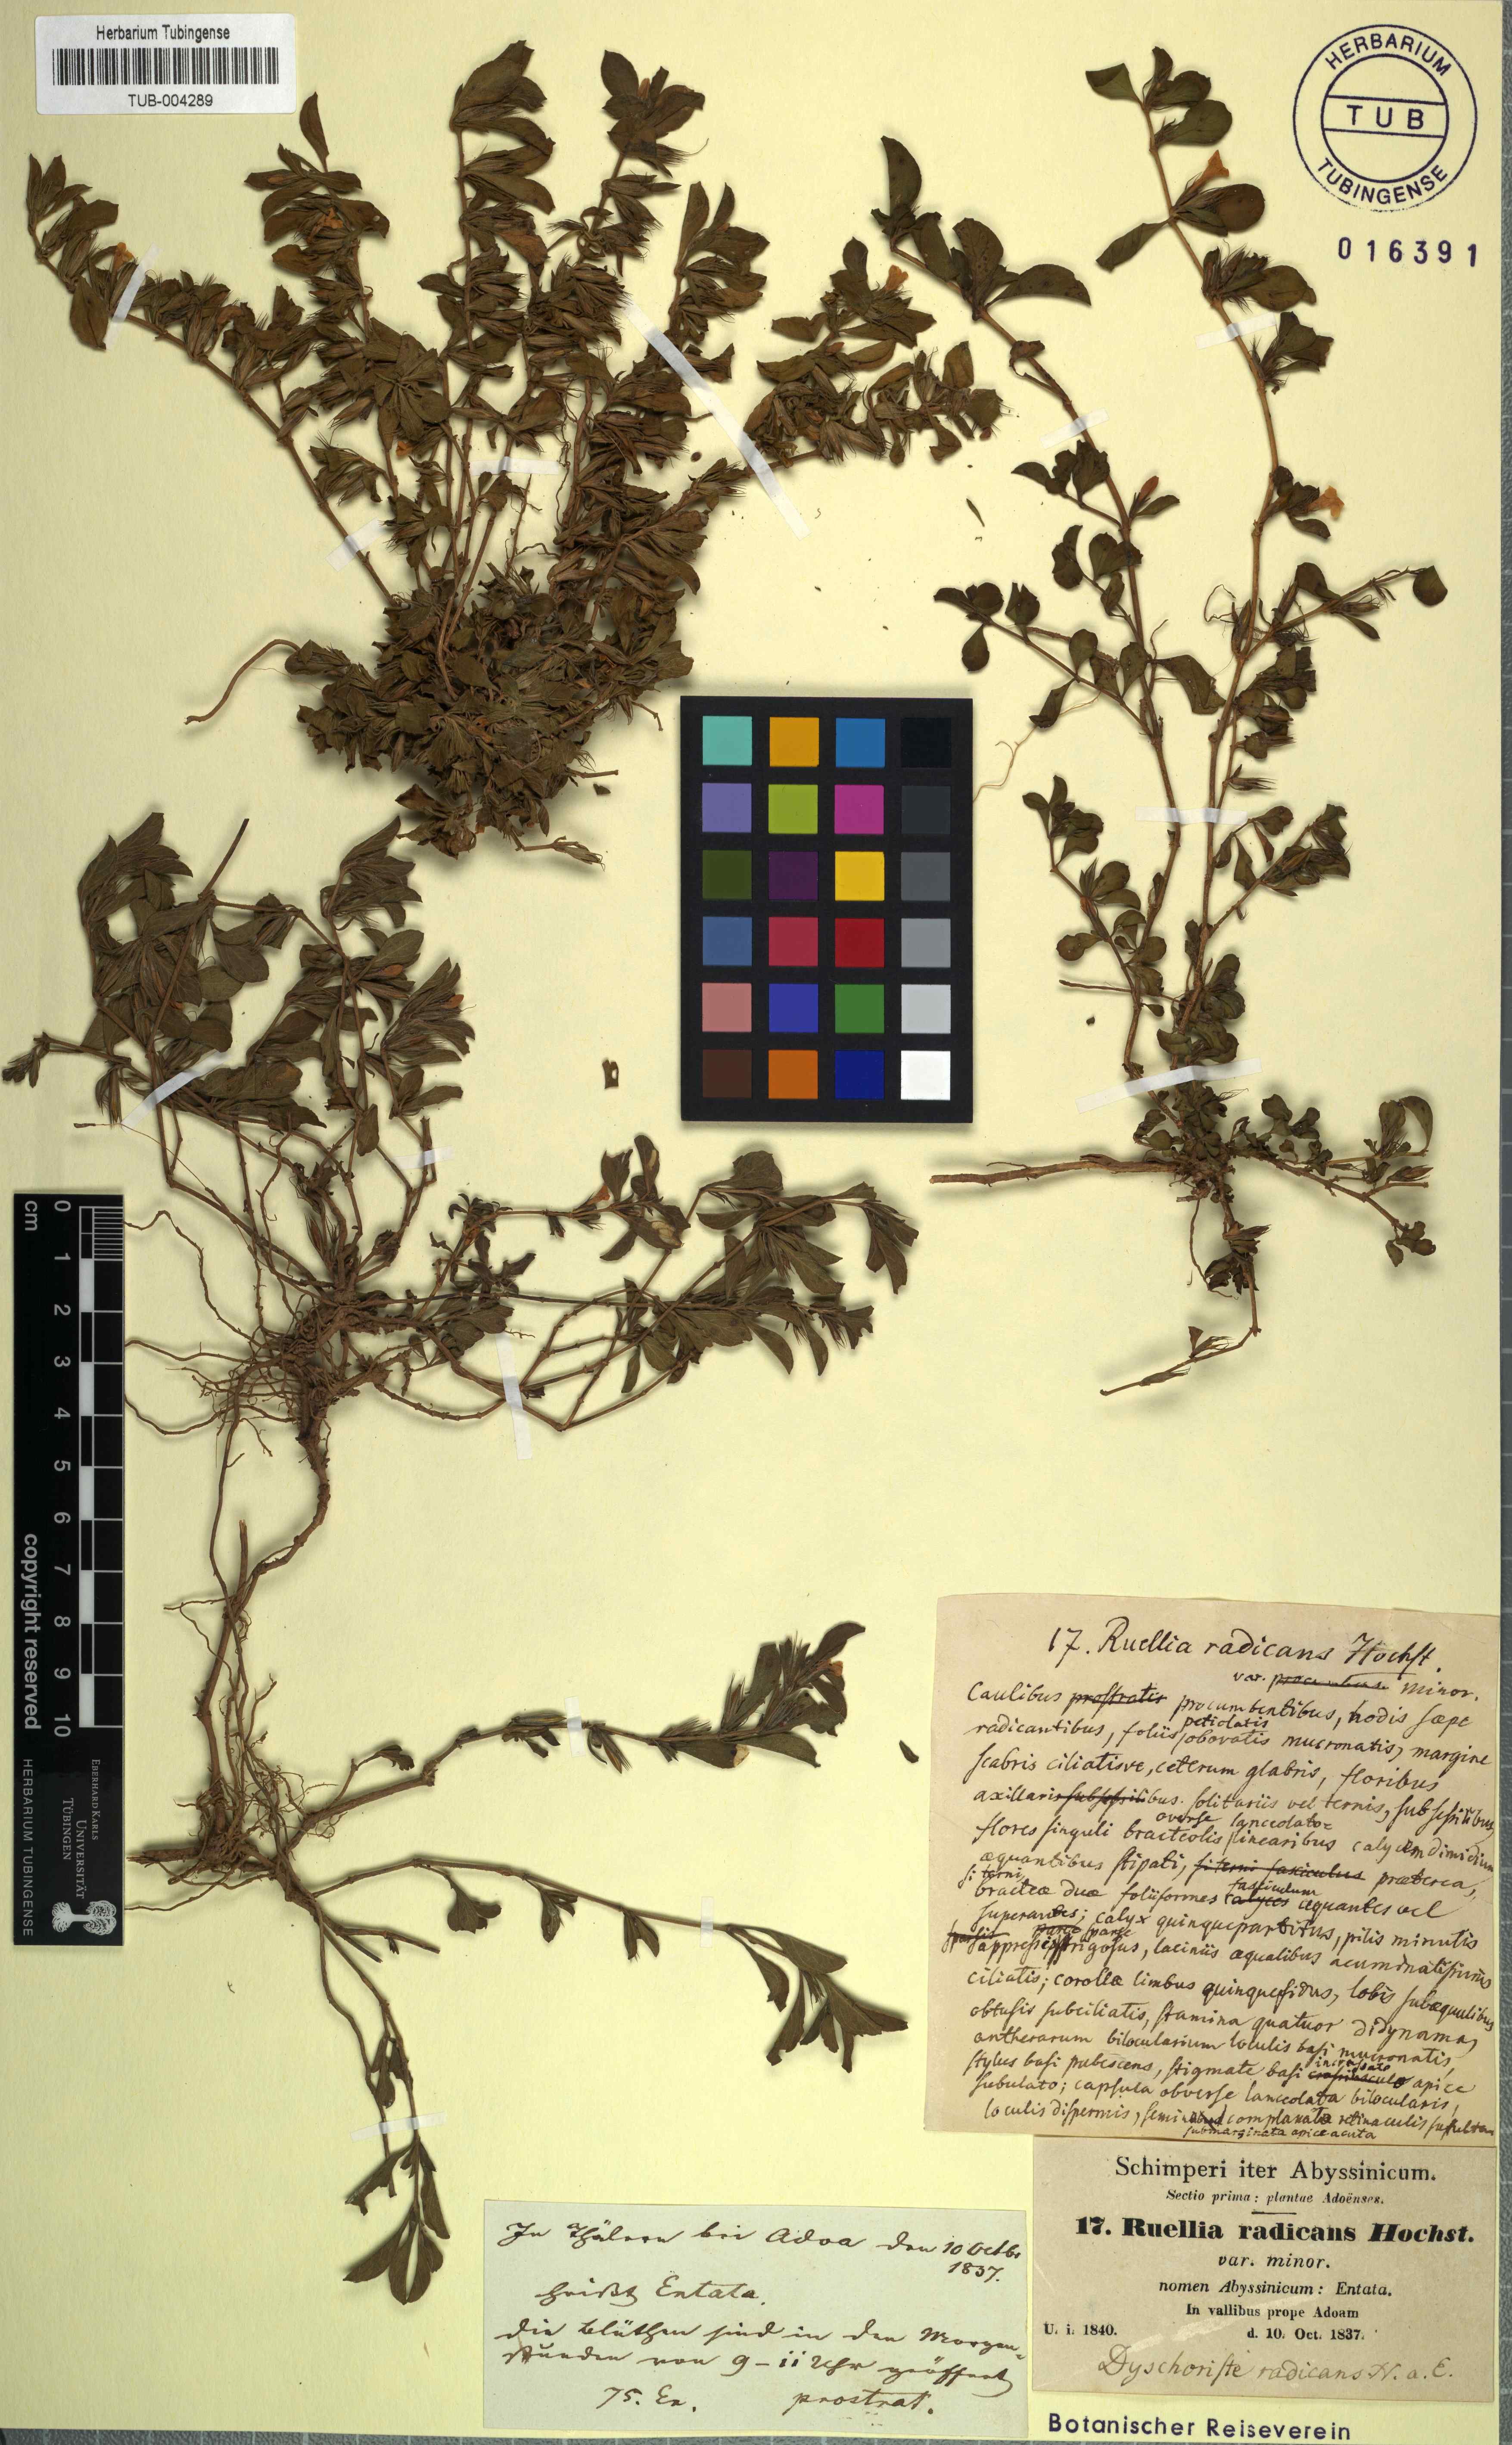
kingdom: Plantae
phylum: Tracheophyta
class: Magnoliopsida
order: Lamiales
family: Acanthaceae
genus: Dyschoriste
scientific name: Dyschoriste radicans
